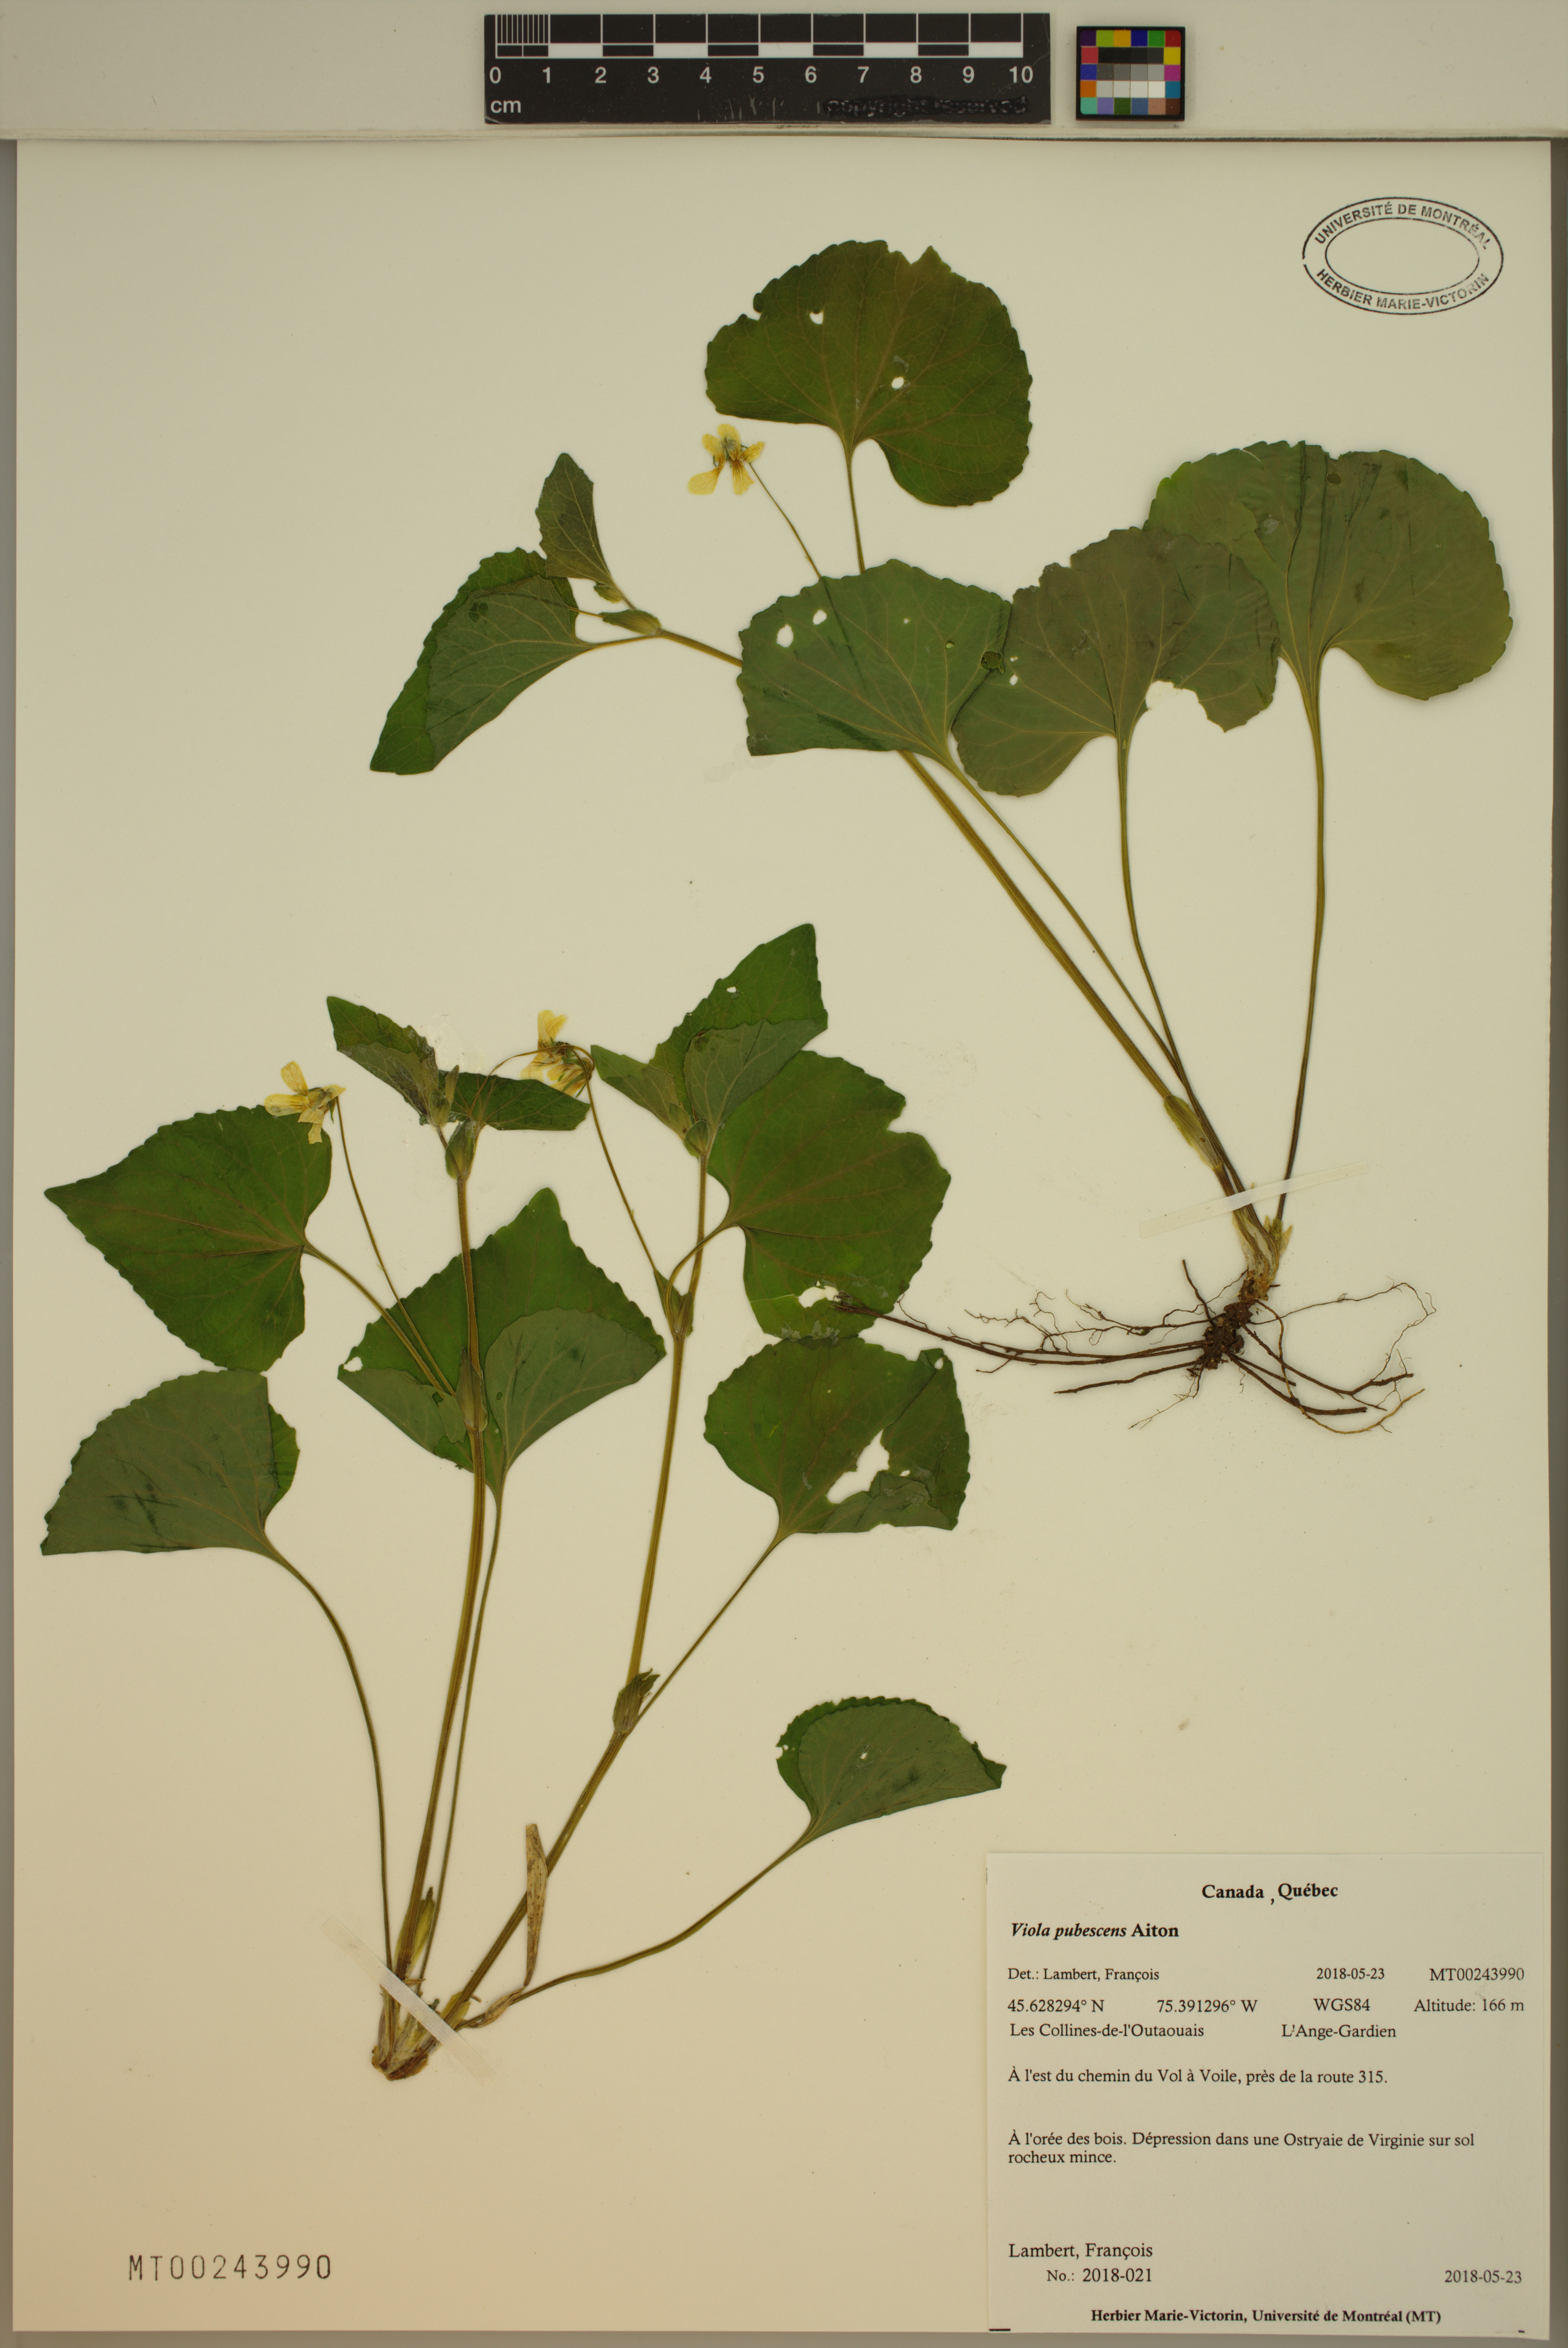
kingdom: Plantae
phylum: Tracheophyta
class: Magnoliopsida
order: Malpighiales
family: Violaceae
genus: Viola
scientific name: Viola pubescens
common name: Yellow forest violet
